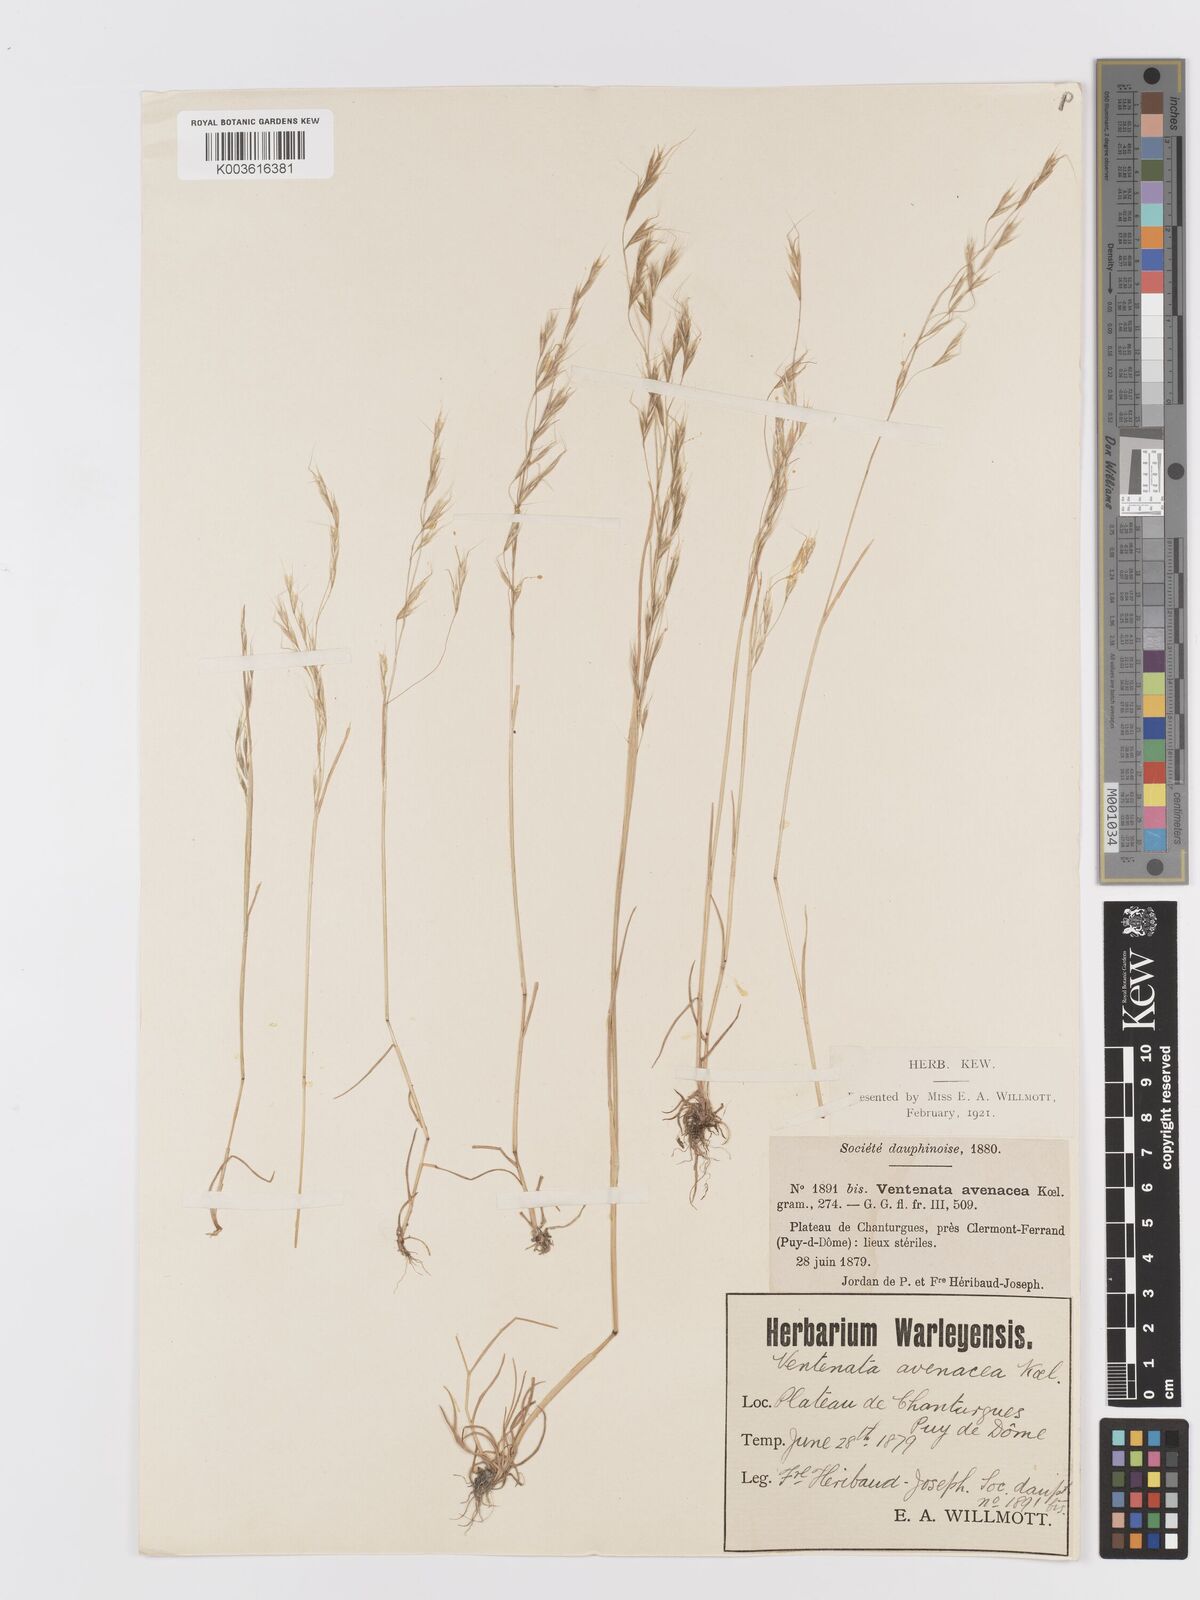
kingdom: Plantae
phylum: Tracheophyta
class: Liliopsida
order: Poales
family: Poaceae
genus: Ventenata
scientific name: Ventenata dubia
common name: North africa grass
